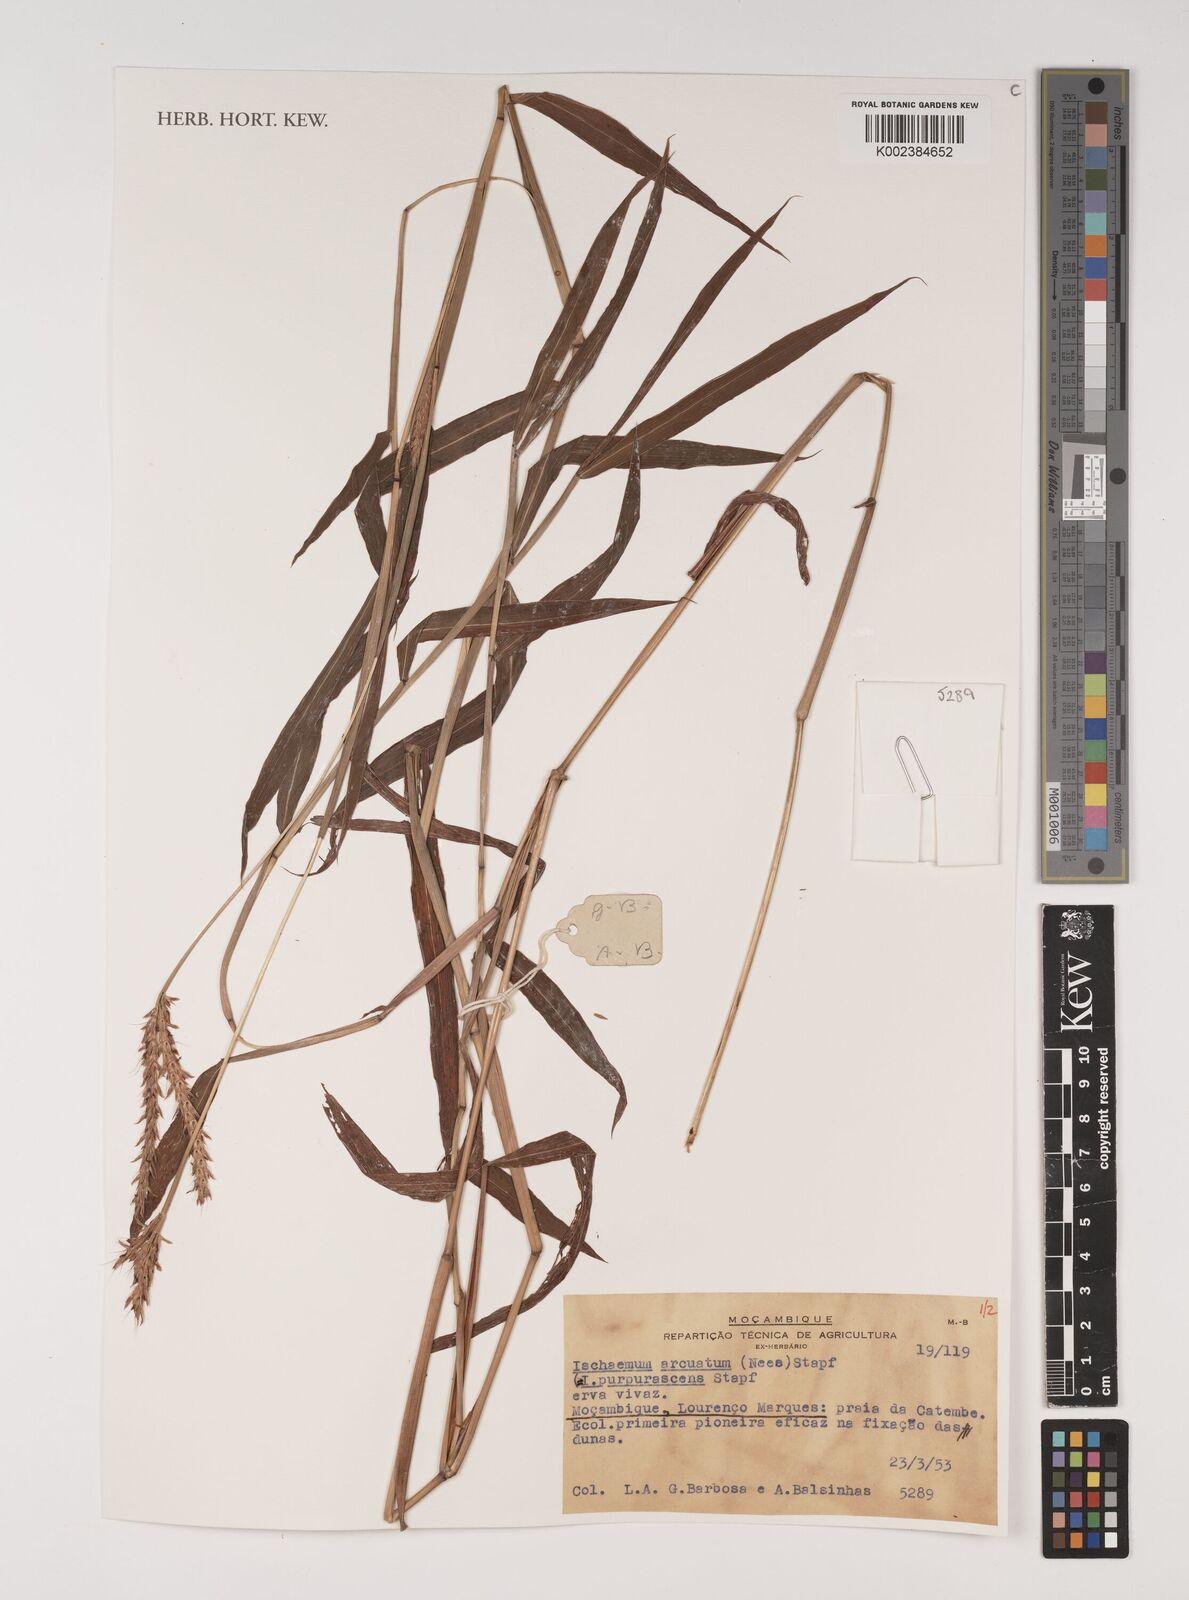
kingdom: Plantae
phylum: Tracheophyta
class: Liliopsida
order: Poales
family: Poaceae
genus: Ischaemum
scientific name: Ischaemum
